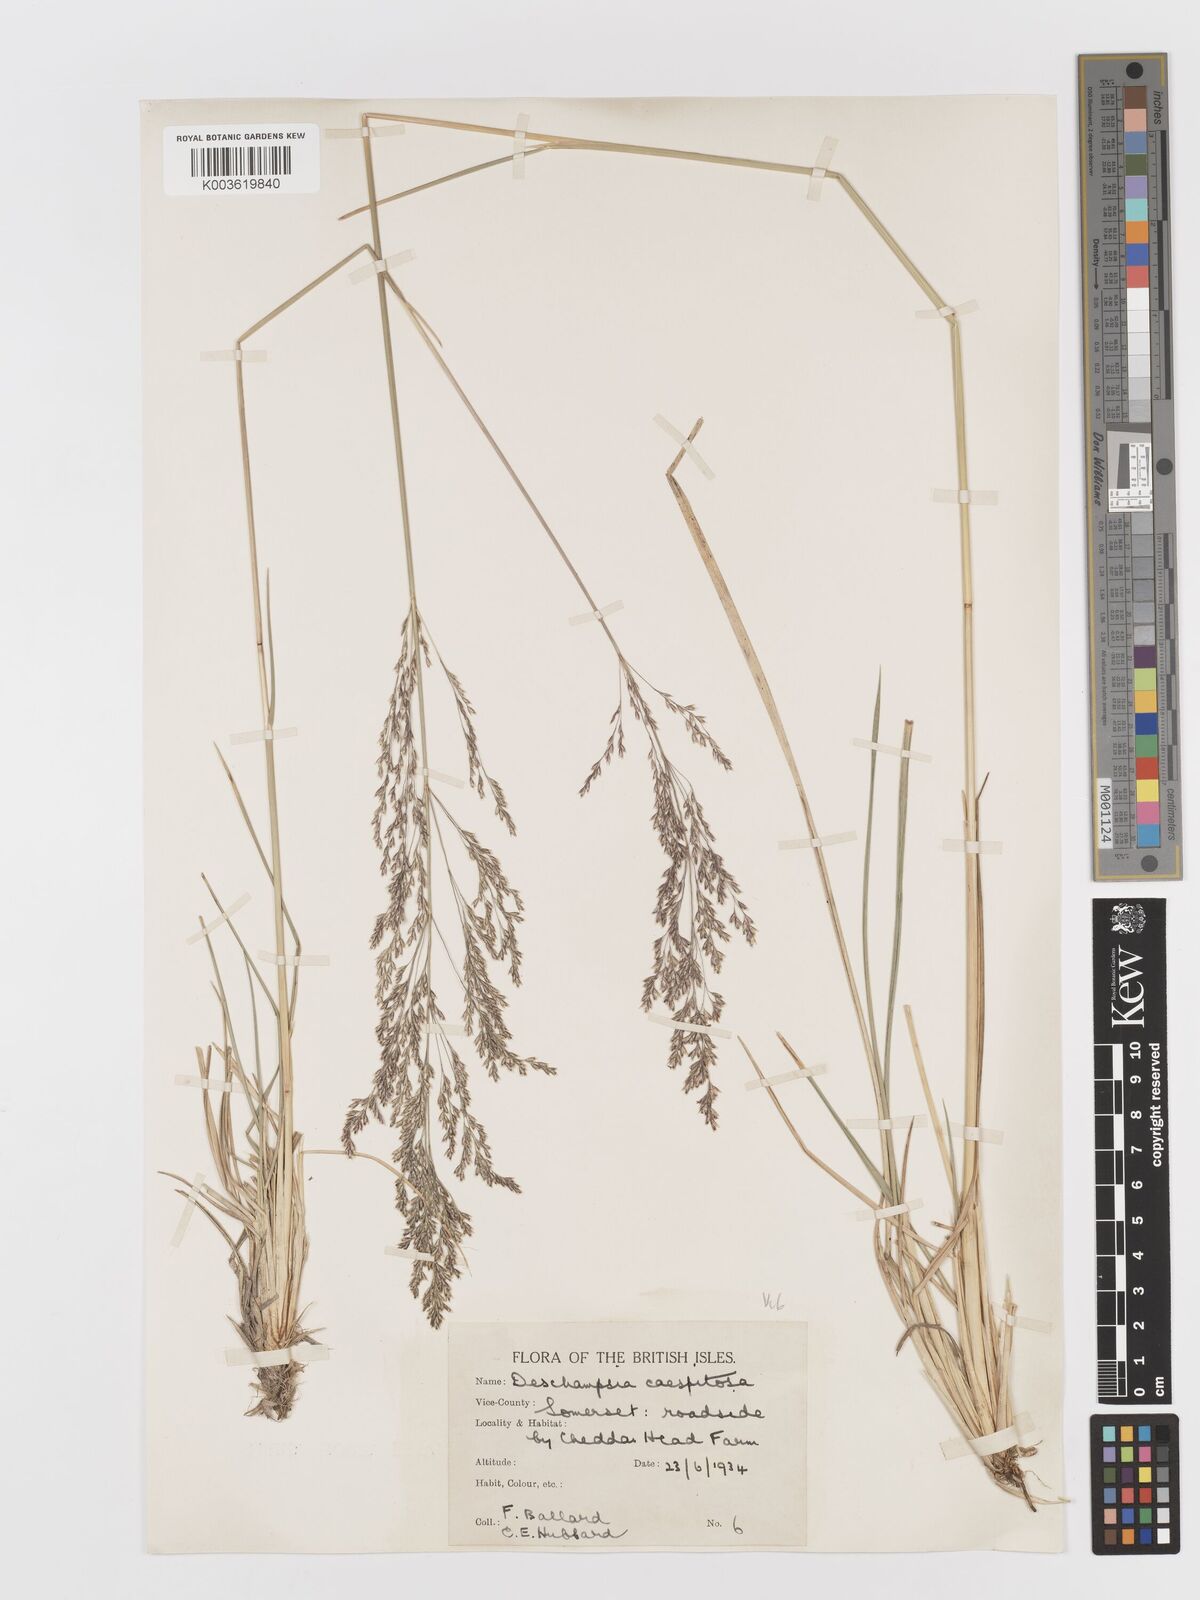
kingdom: Plantae
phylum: Tracheophyta
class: Liliopsida
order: Poales
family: Poaceae
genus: Deschampsia
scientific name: Deschampsia cespitosa
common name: Tufted hair-grass
